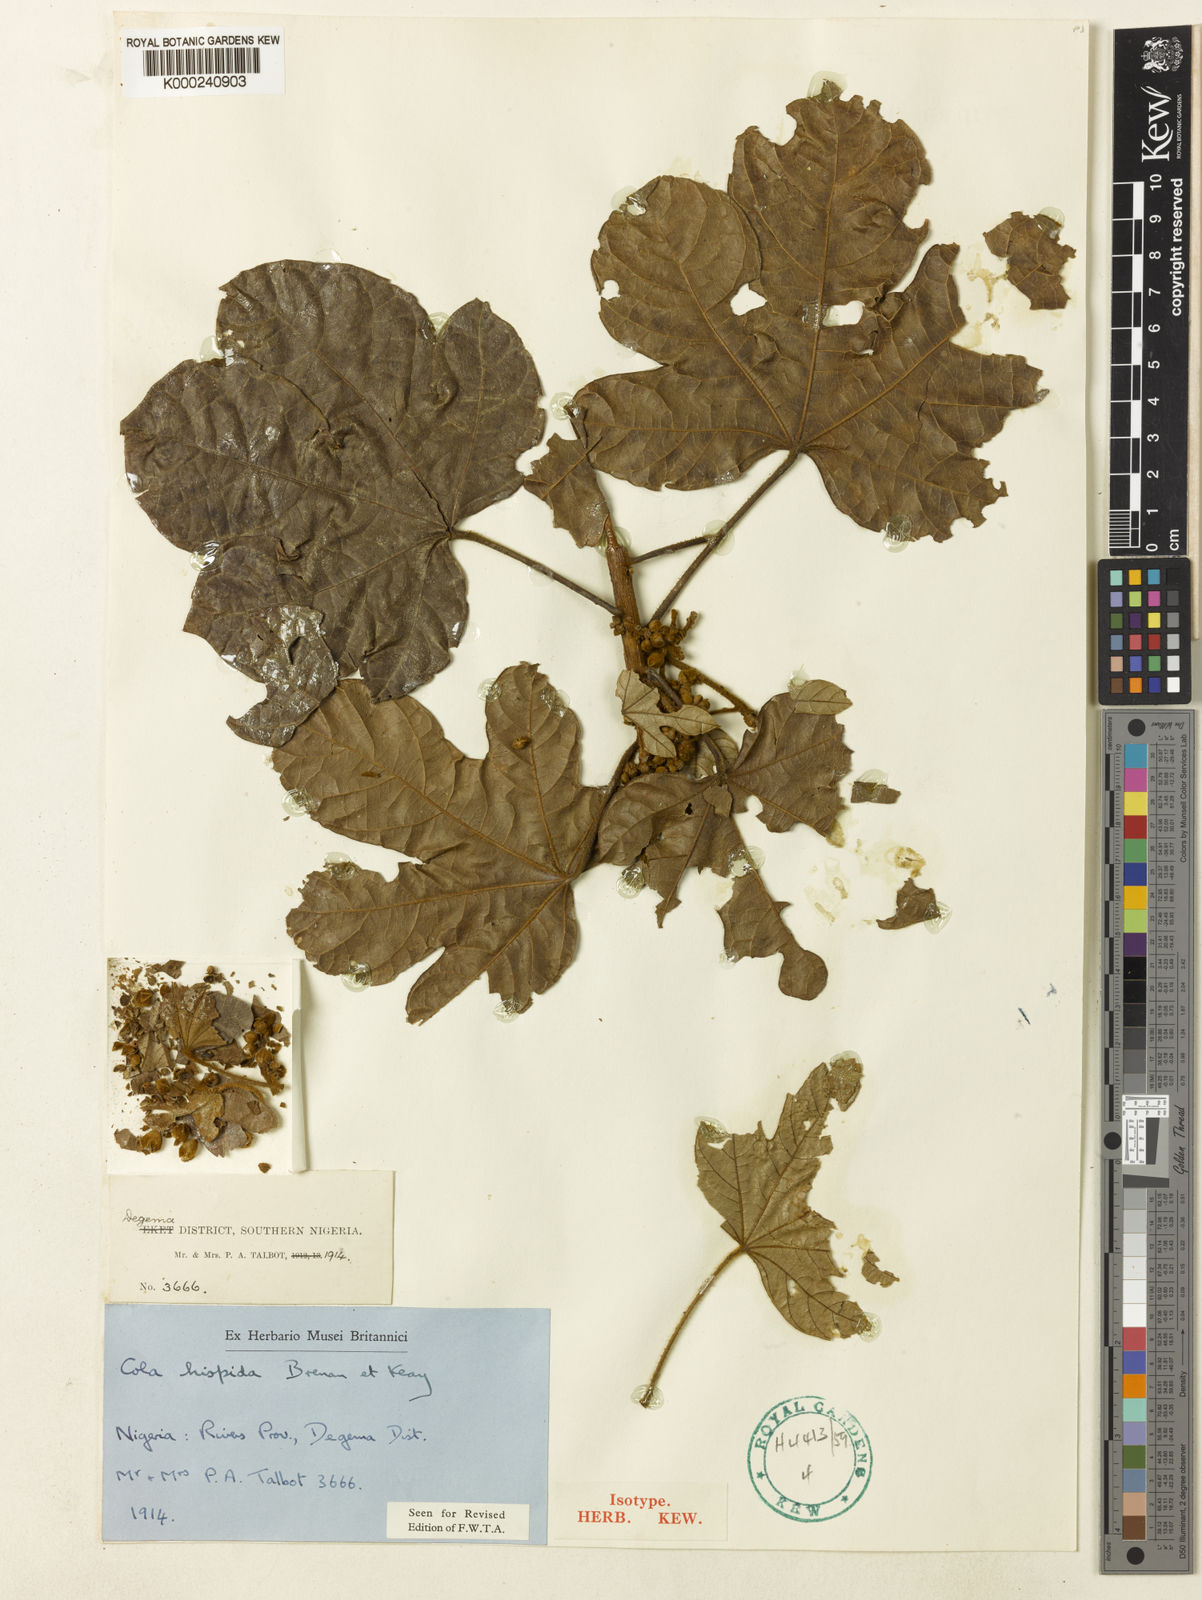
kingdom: Plantae
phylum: Tracheophyta
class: Magnoliopsida
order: Malvales
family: Malvaceae
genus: Cola
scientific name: Cola hispida
